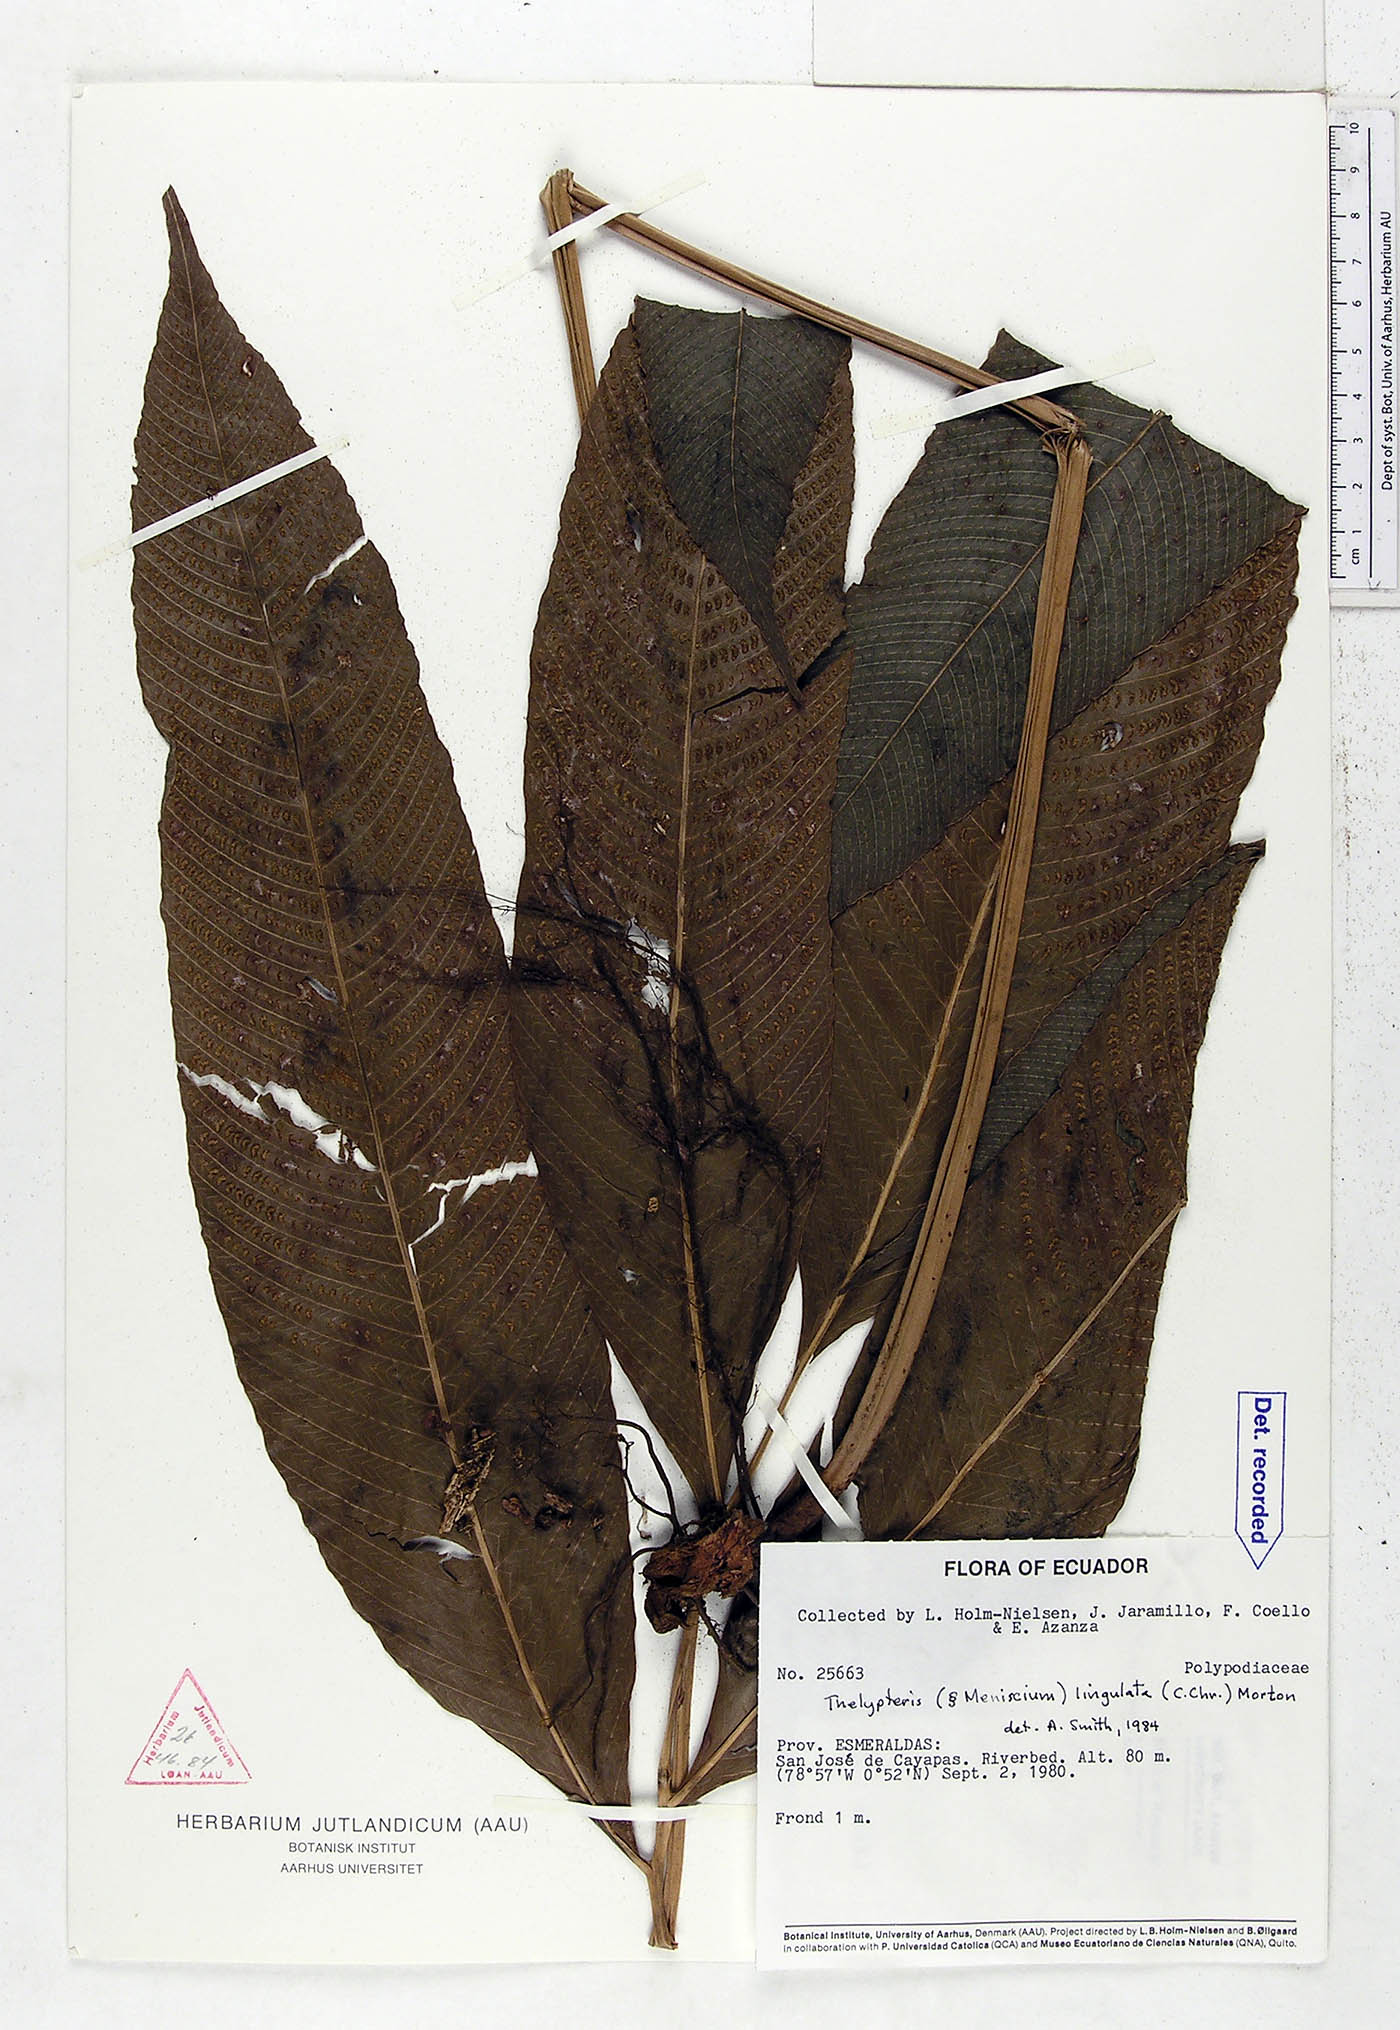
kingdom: Plantae
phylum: Tracheophyta
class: Polypodiopsida
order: Polypodiales
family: Thelypteridaceae
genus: Meniscium
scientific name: Meniscium lingulatum
